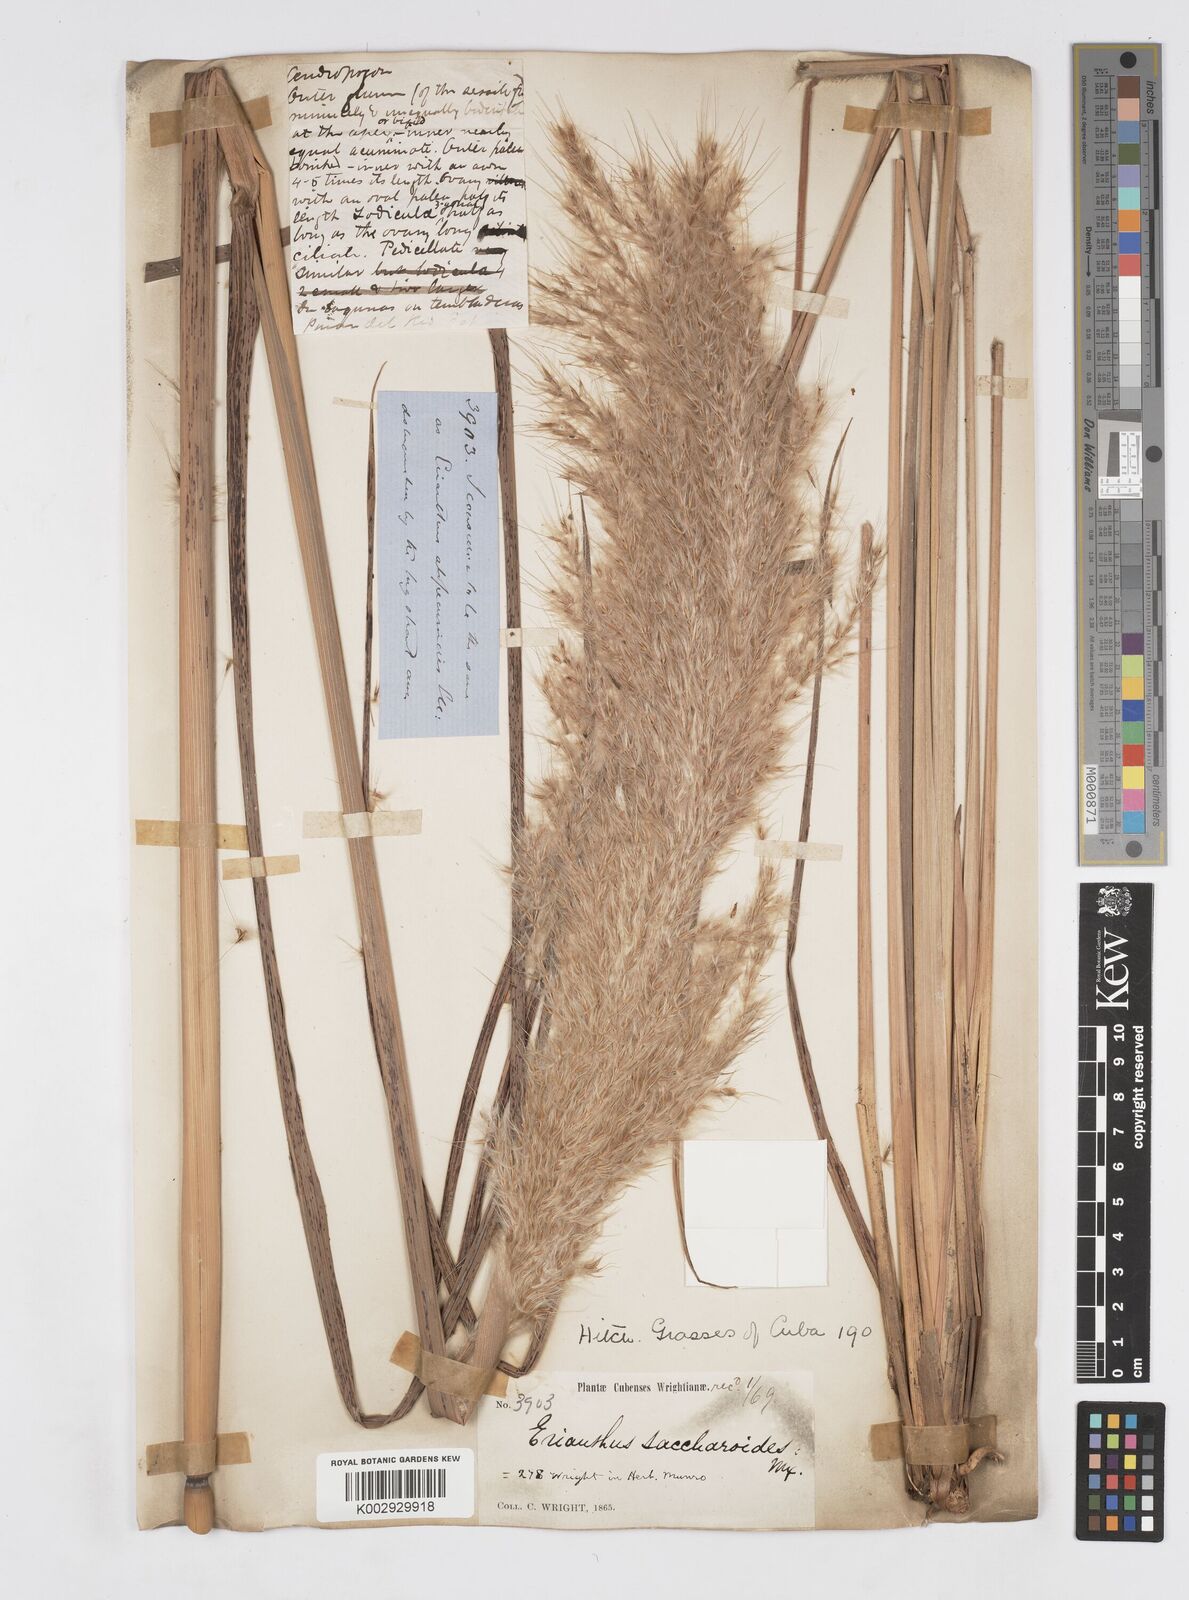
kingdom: Plantae
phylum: Tracheophyta
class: Liliopsida
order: Poales
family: Poaceae
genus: Erianthus
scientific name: Erianthus giganteus
